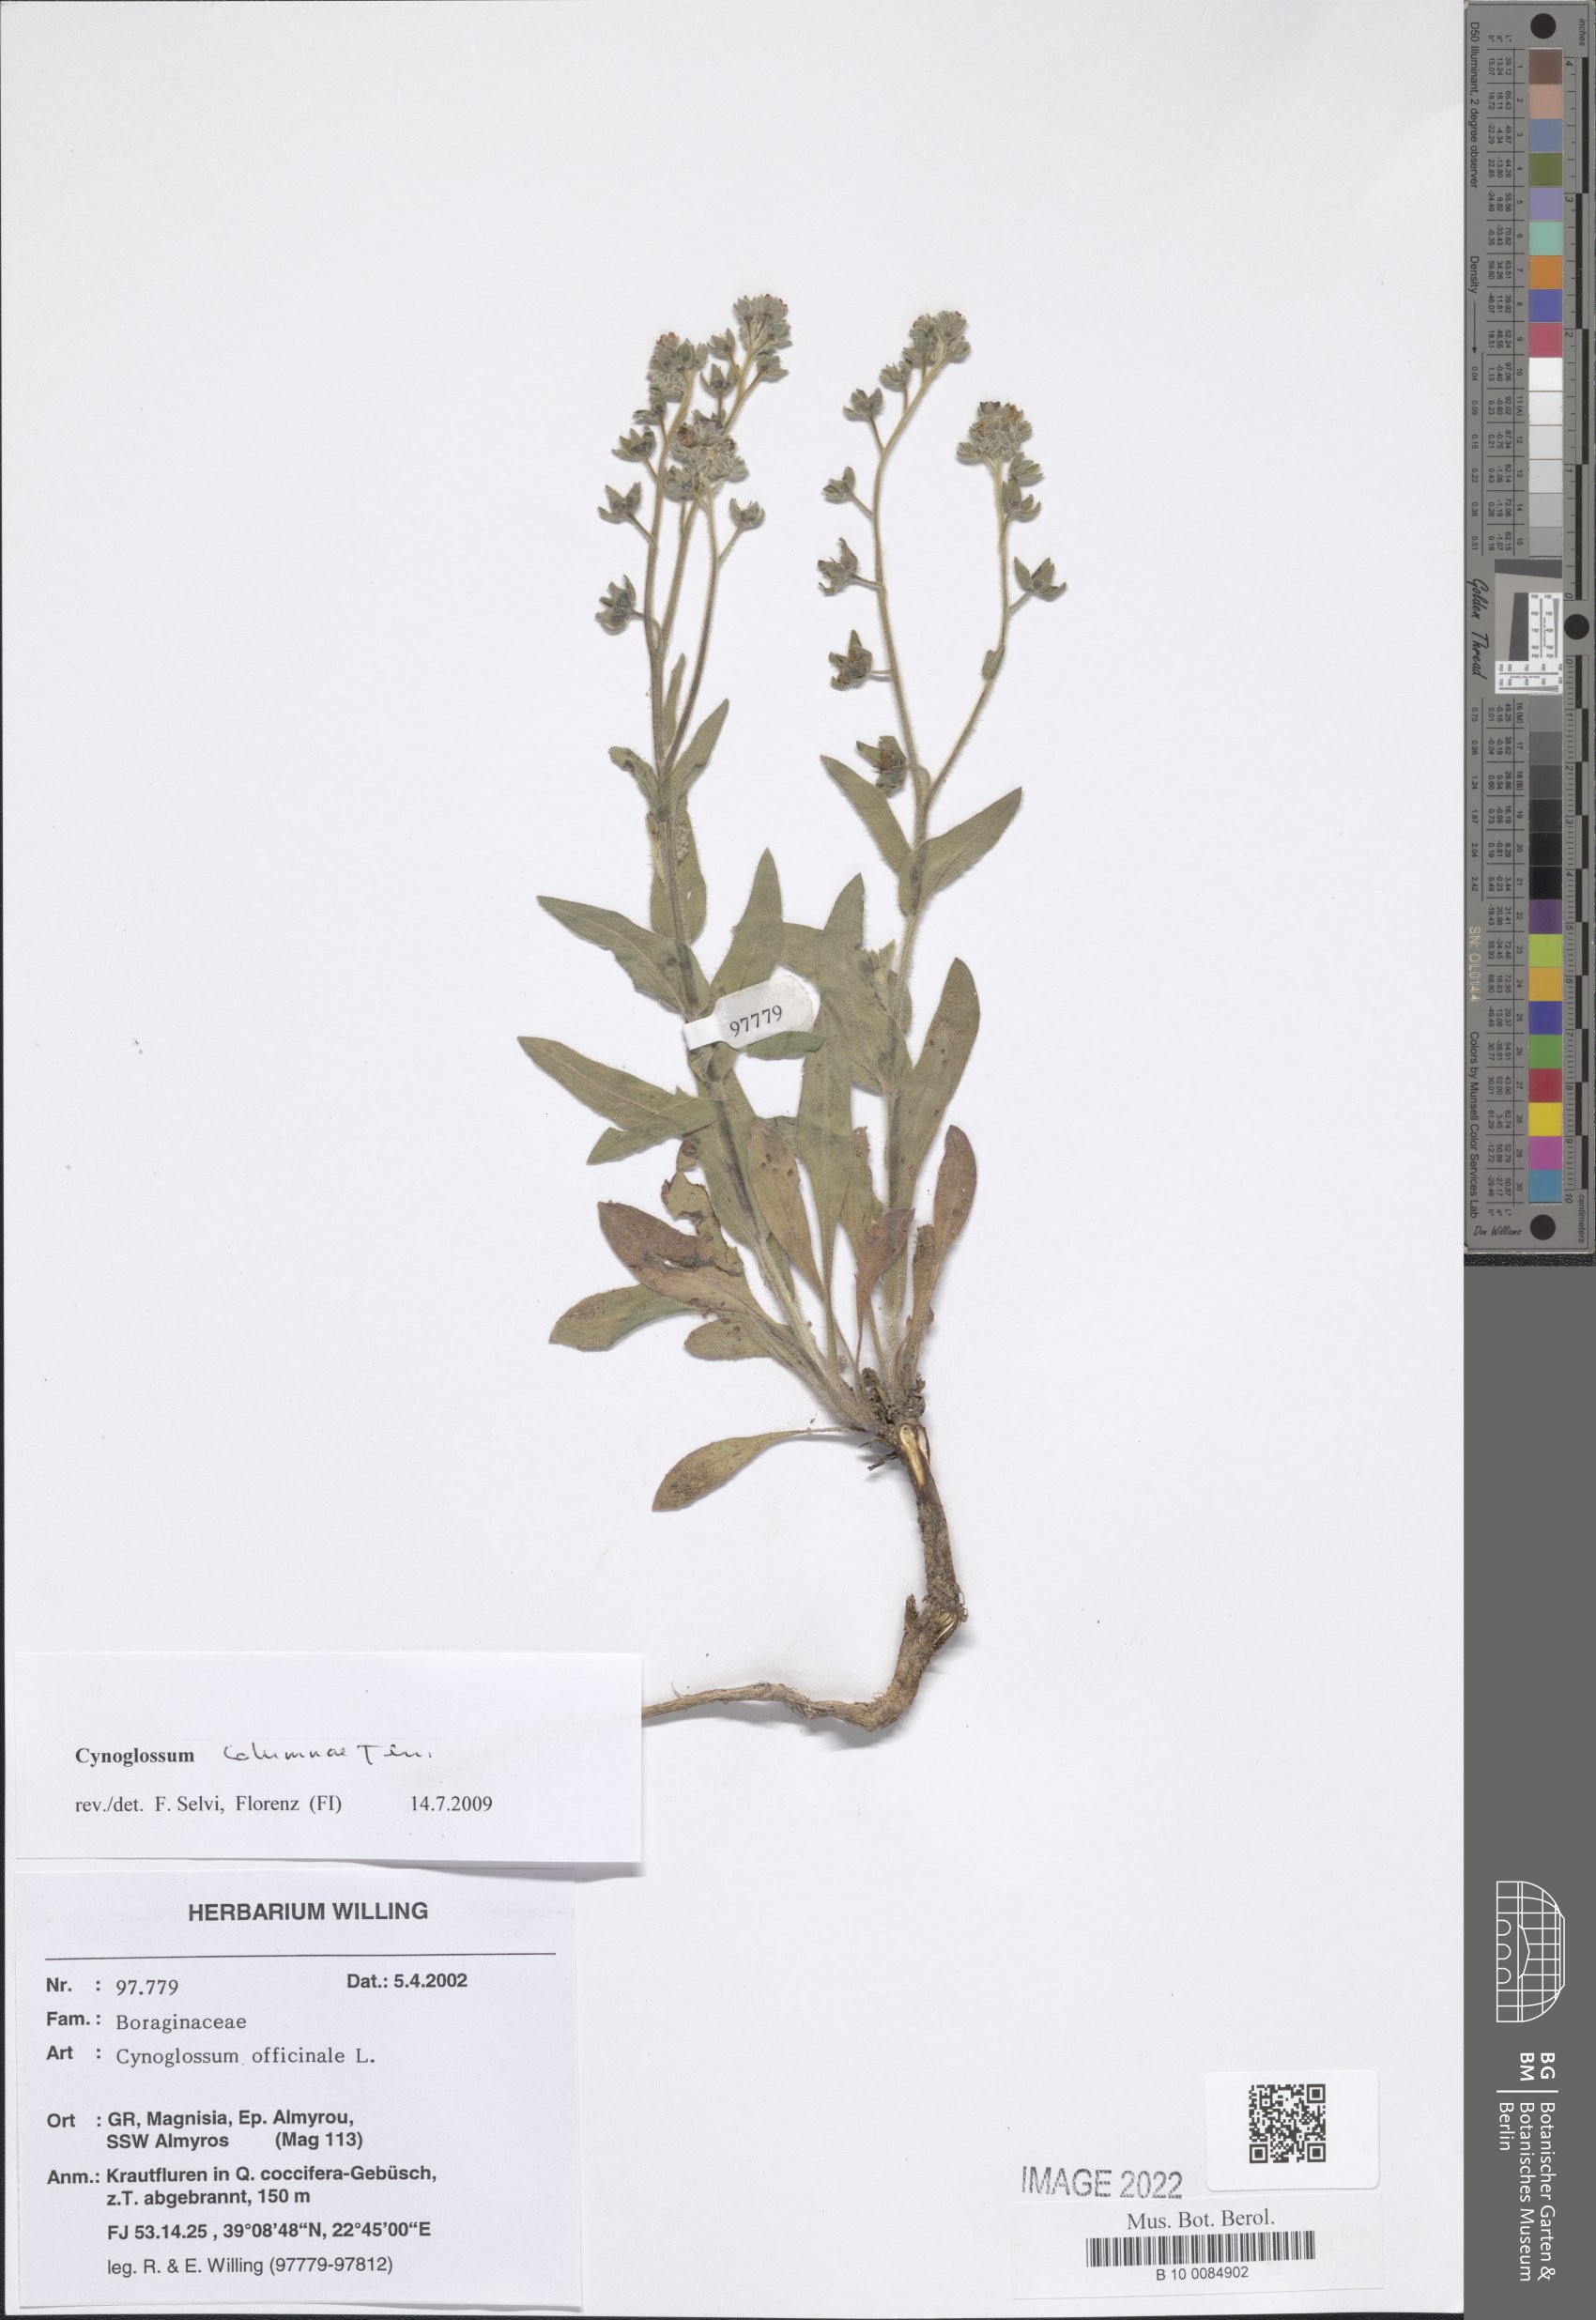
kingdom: Plantae
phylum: Tracheophyta
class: Magnoliopsida
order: Boraginales
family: Boraginaceae
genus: Rindera
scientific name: Rindera columnae
